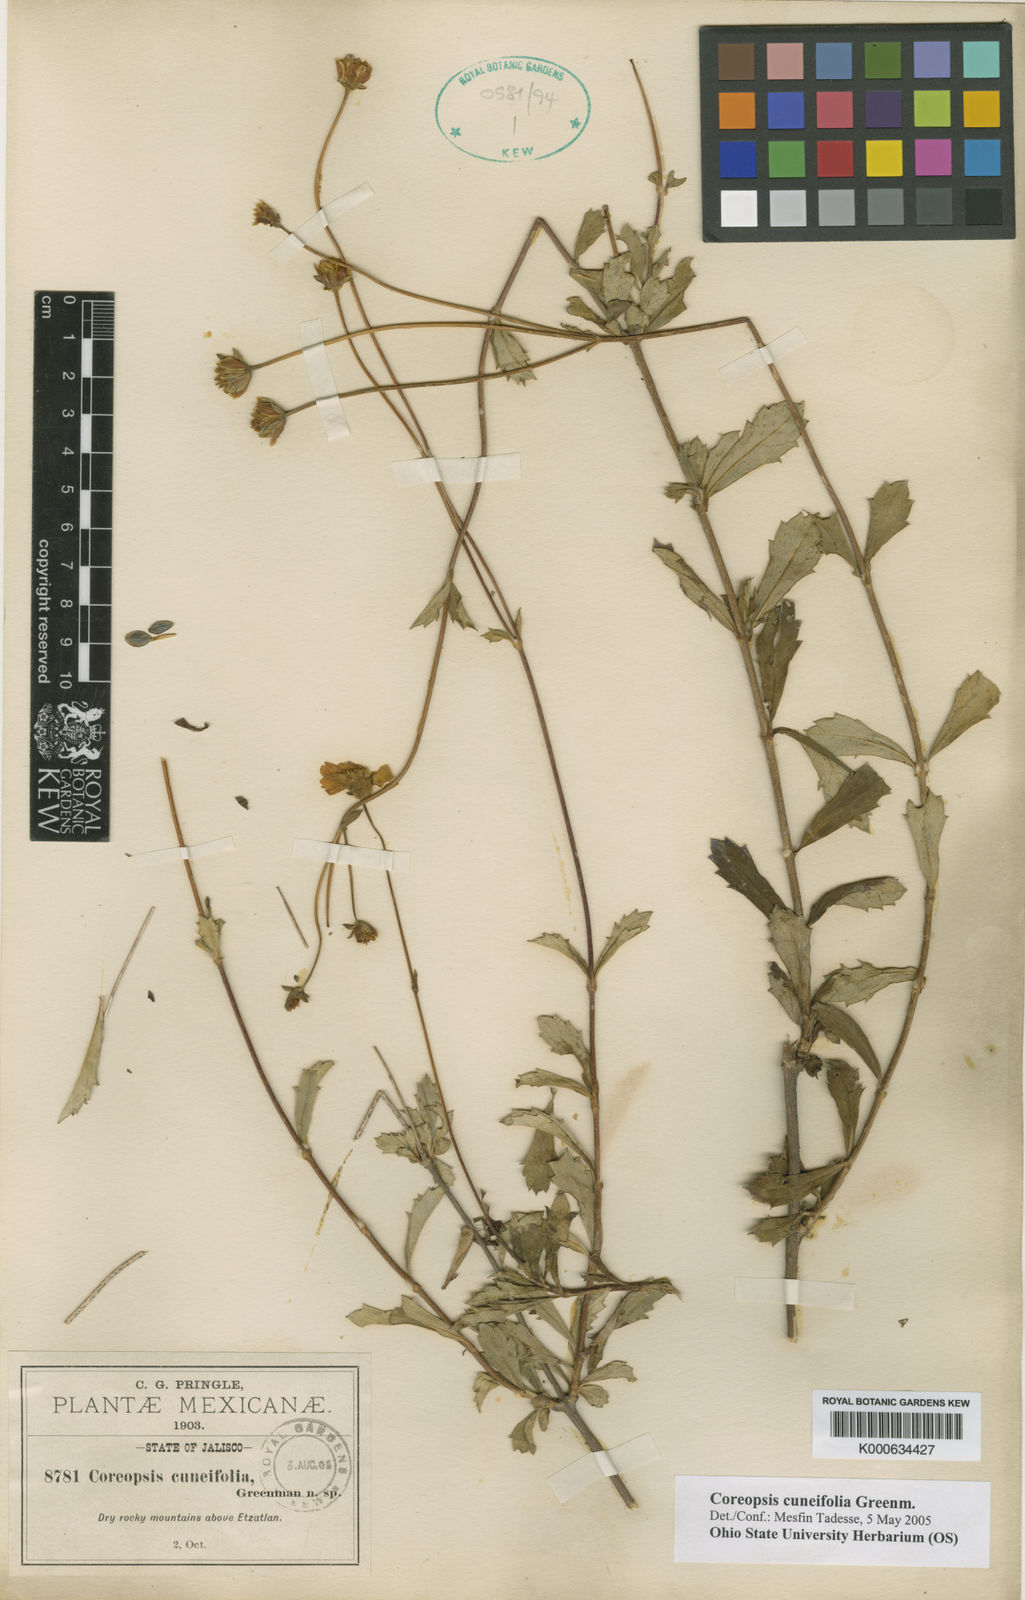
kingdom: Plantae
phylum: Tracheophyta
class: Magnoliopsida
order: Asterales
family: Asteraceae
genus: Electranthera
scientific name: Electranthera cuneifolia
